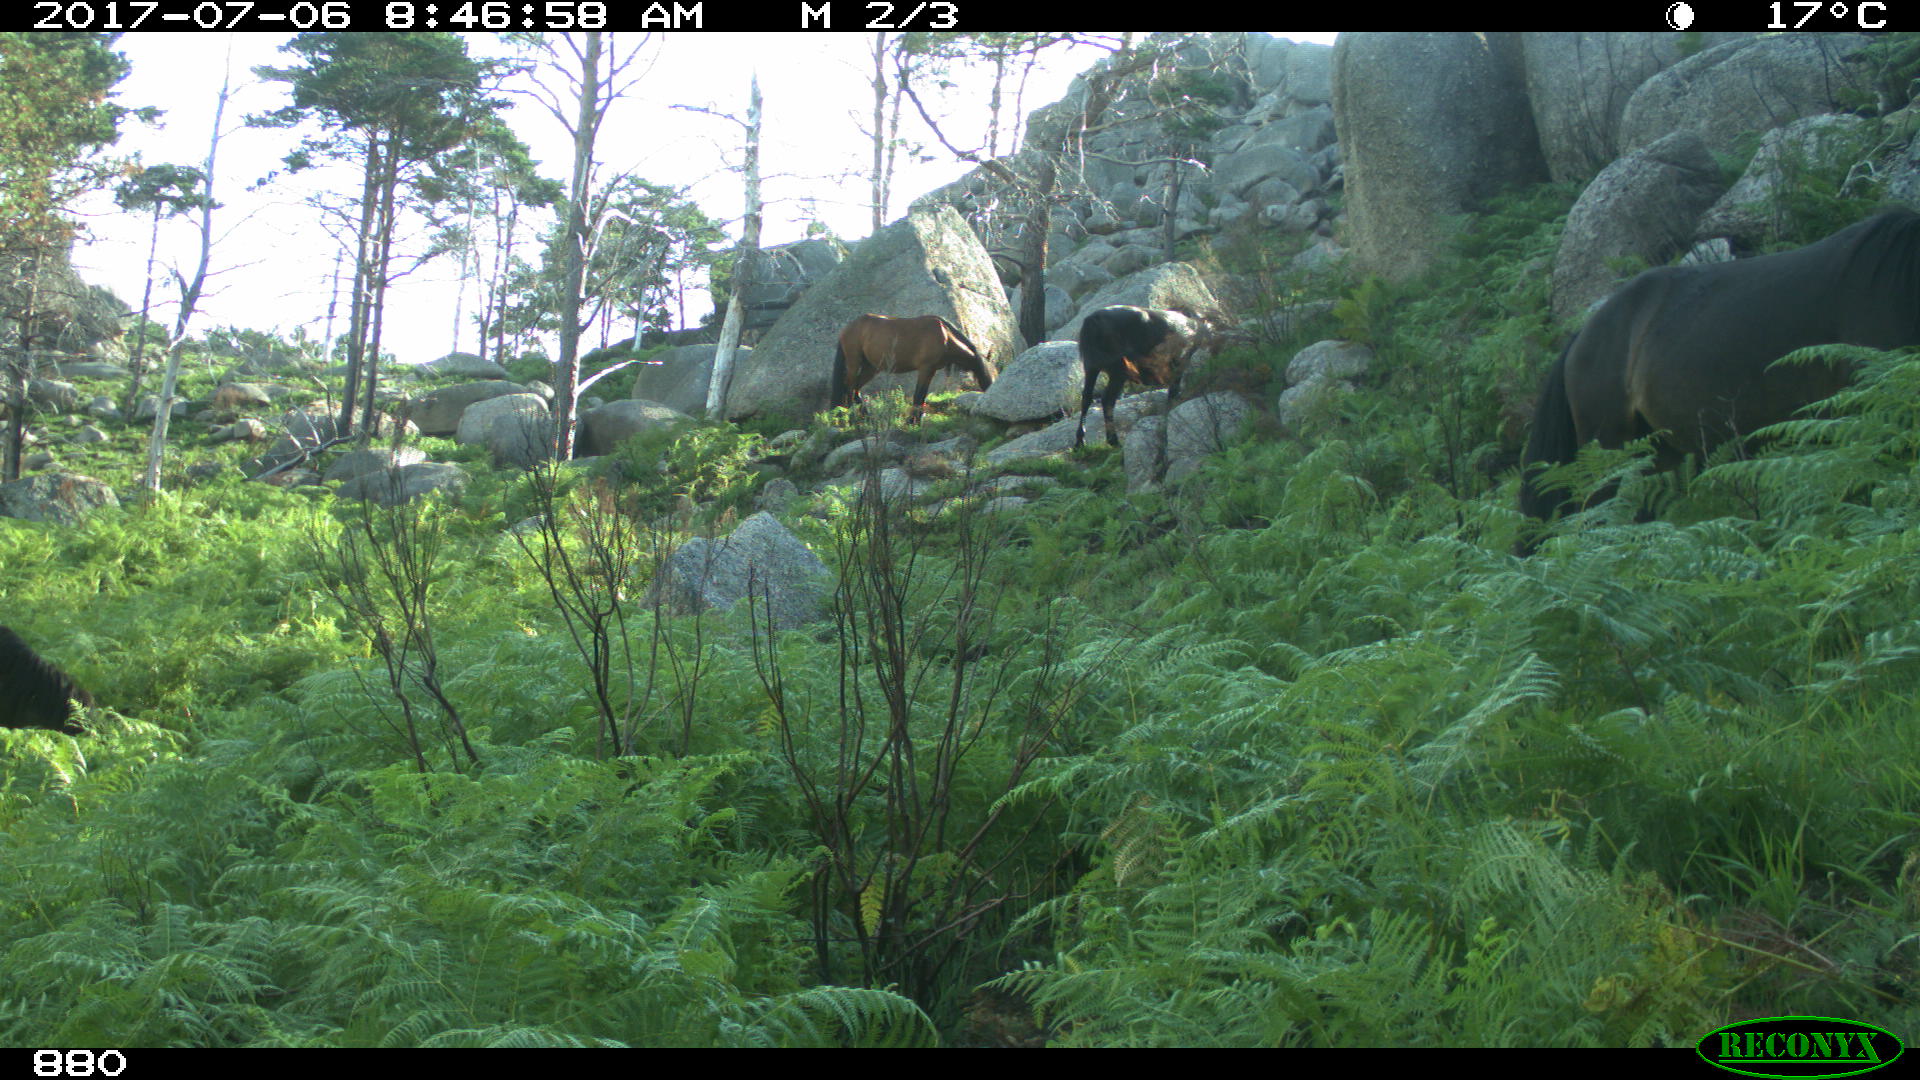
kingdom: Animalia
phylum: Chordata
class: Mammalia
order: Perissodactyla
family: Equidae
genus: Equus
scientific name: Equus caballus
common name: Horse
